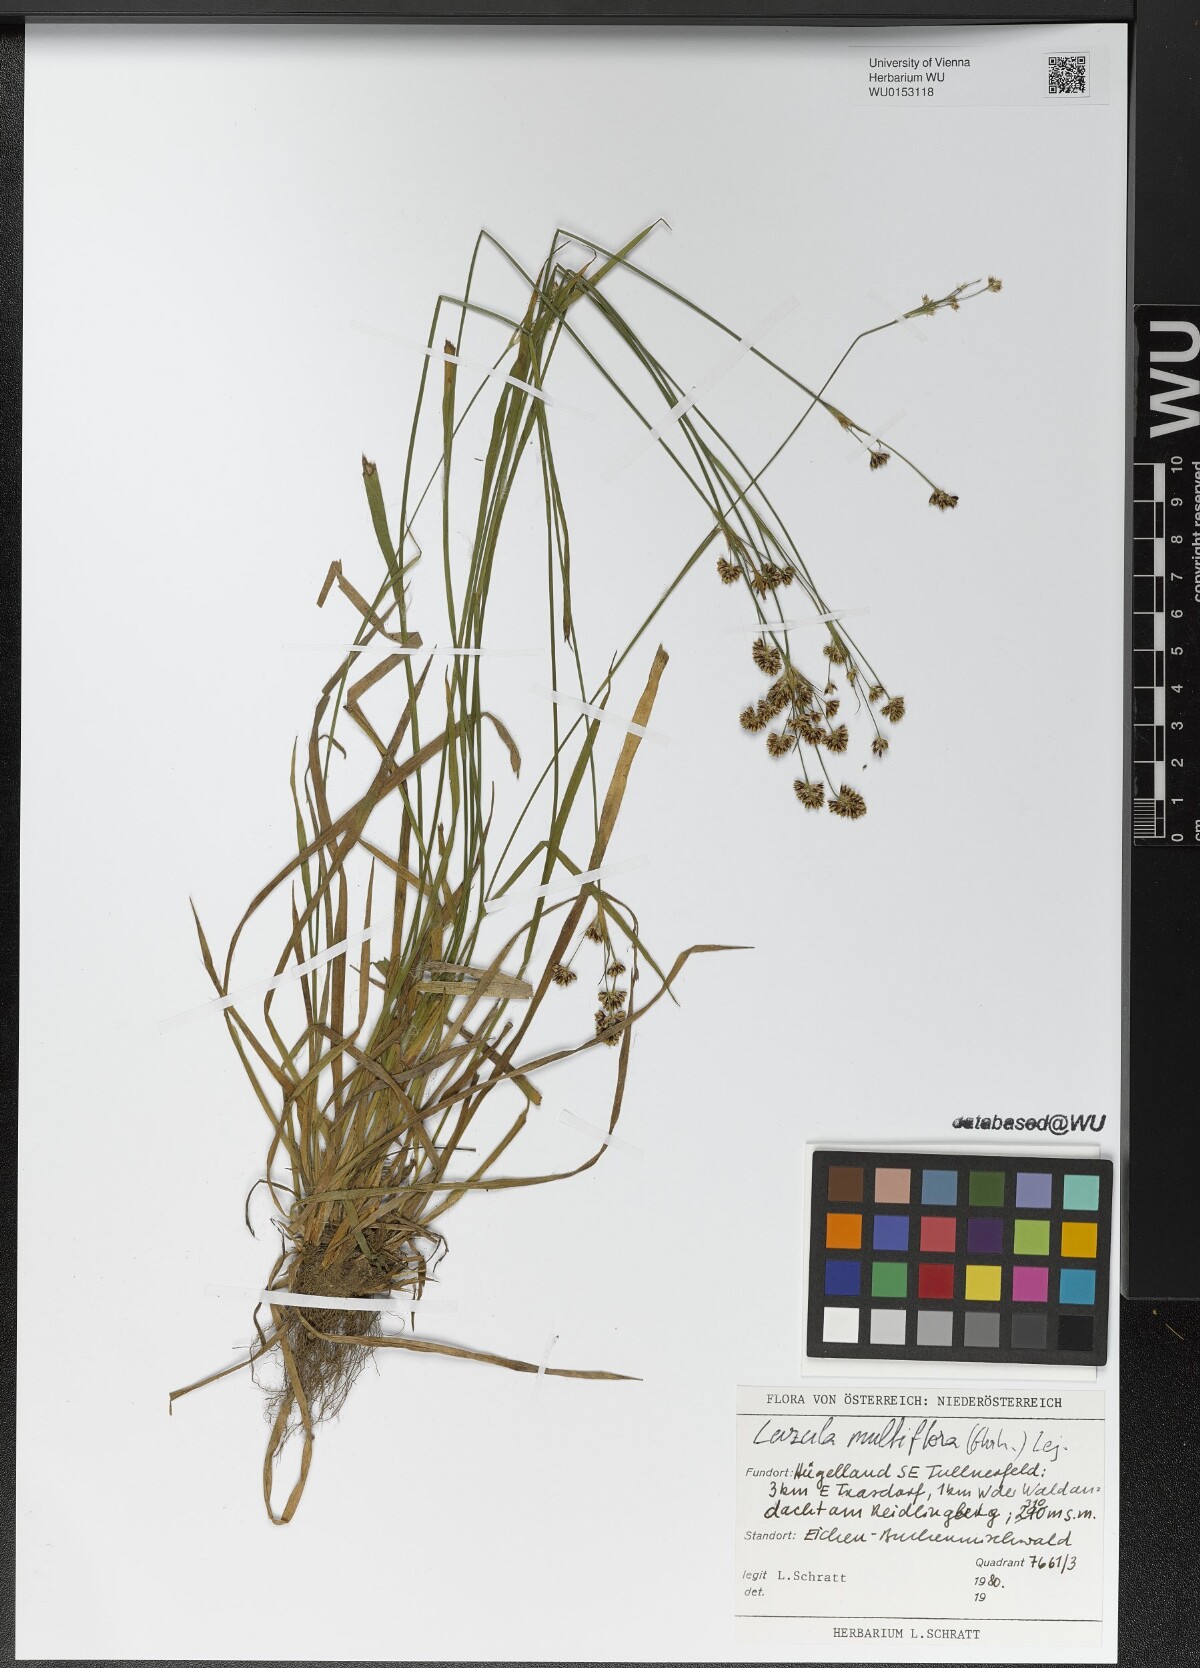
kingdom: Plantae
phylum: Tracheophyta
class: Liliopsida
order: Poales
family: Juncaceae
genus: Luzula
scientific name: Luzula multiflora
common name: Heath wood-rush
